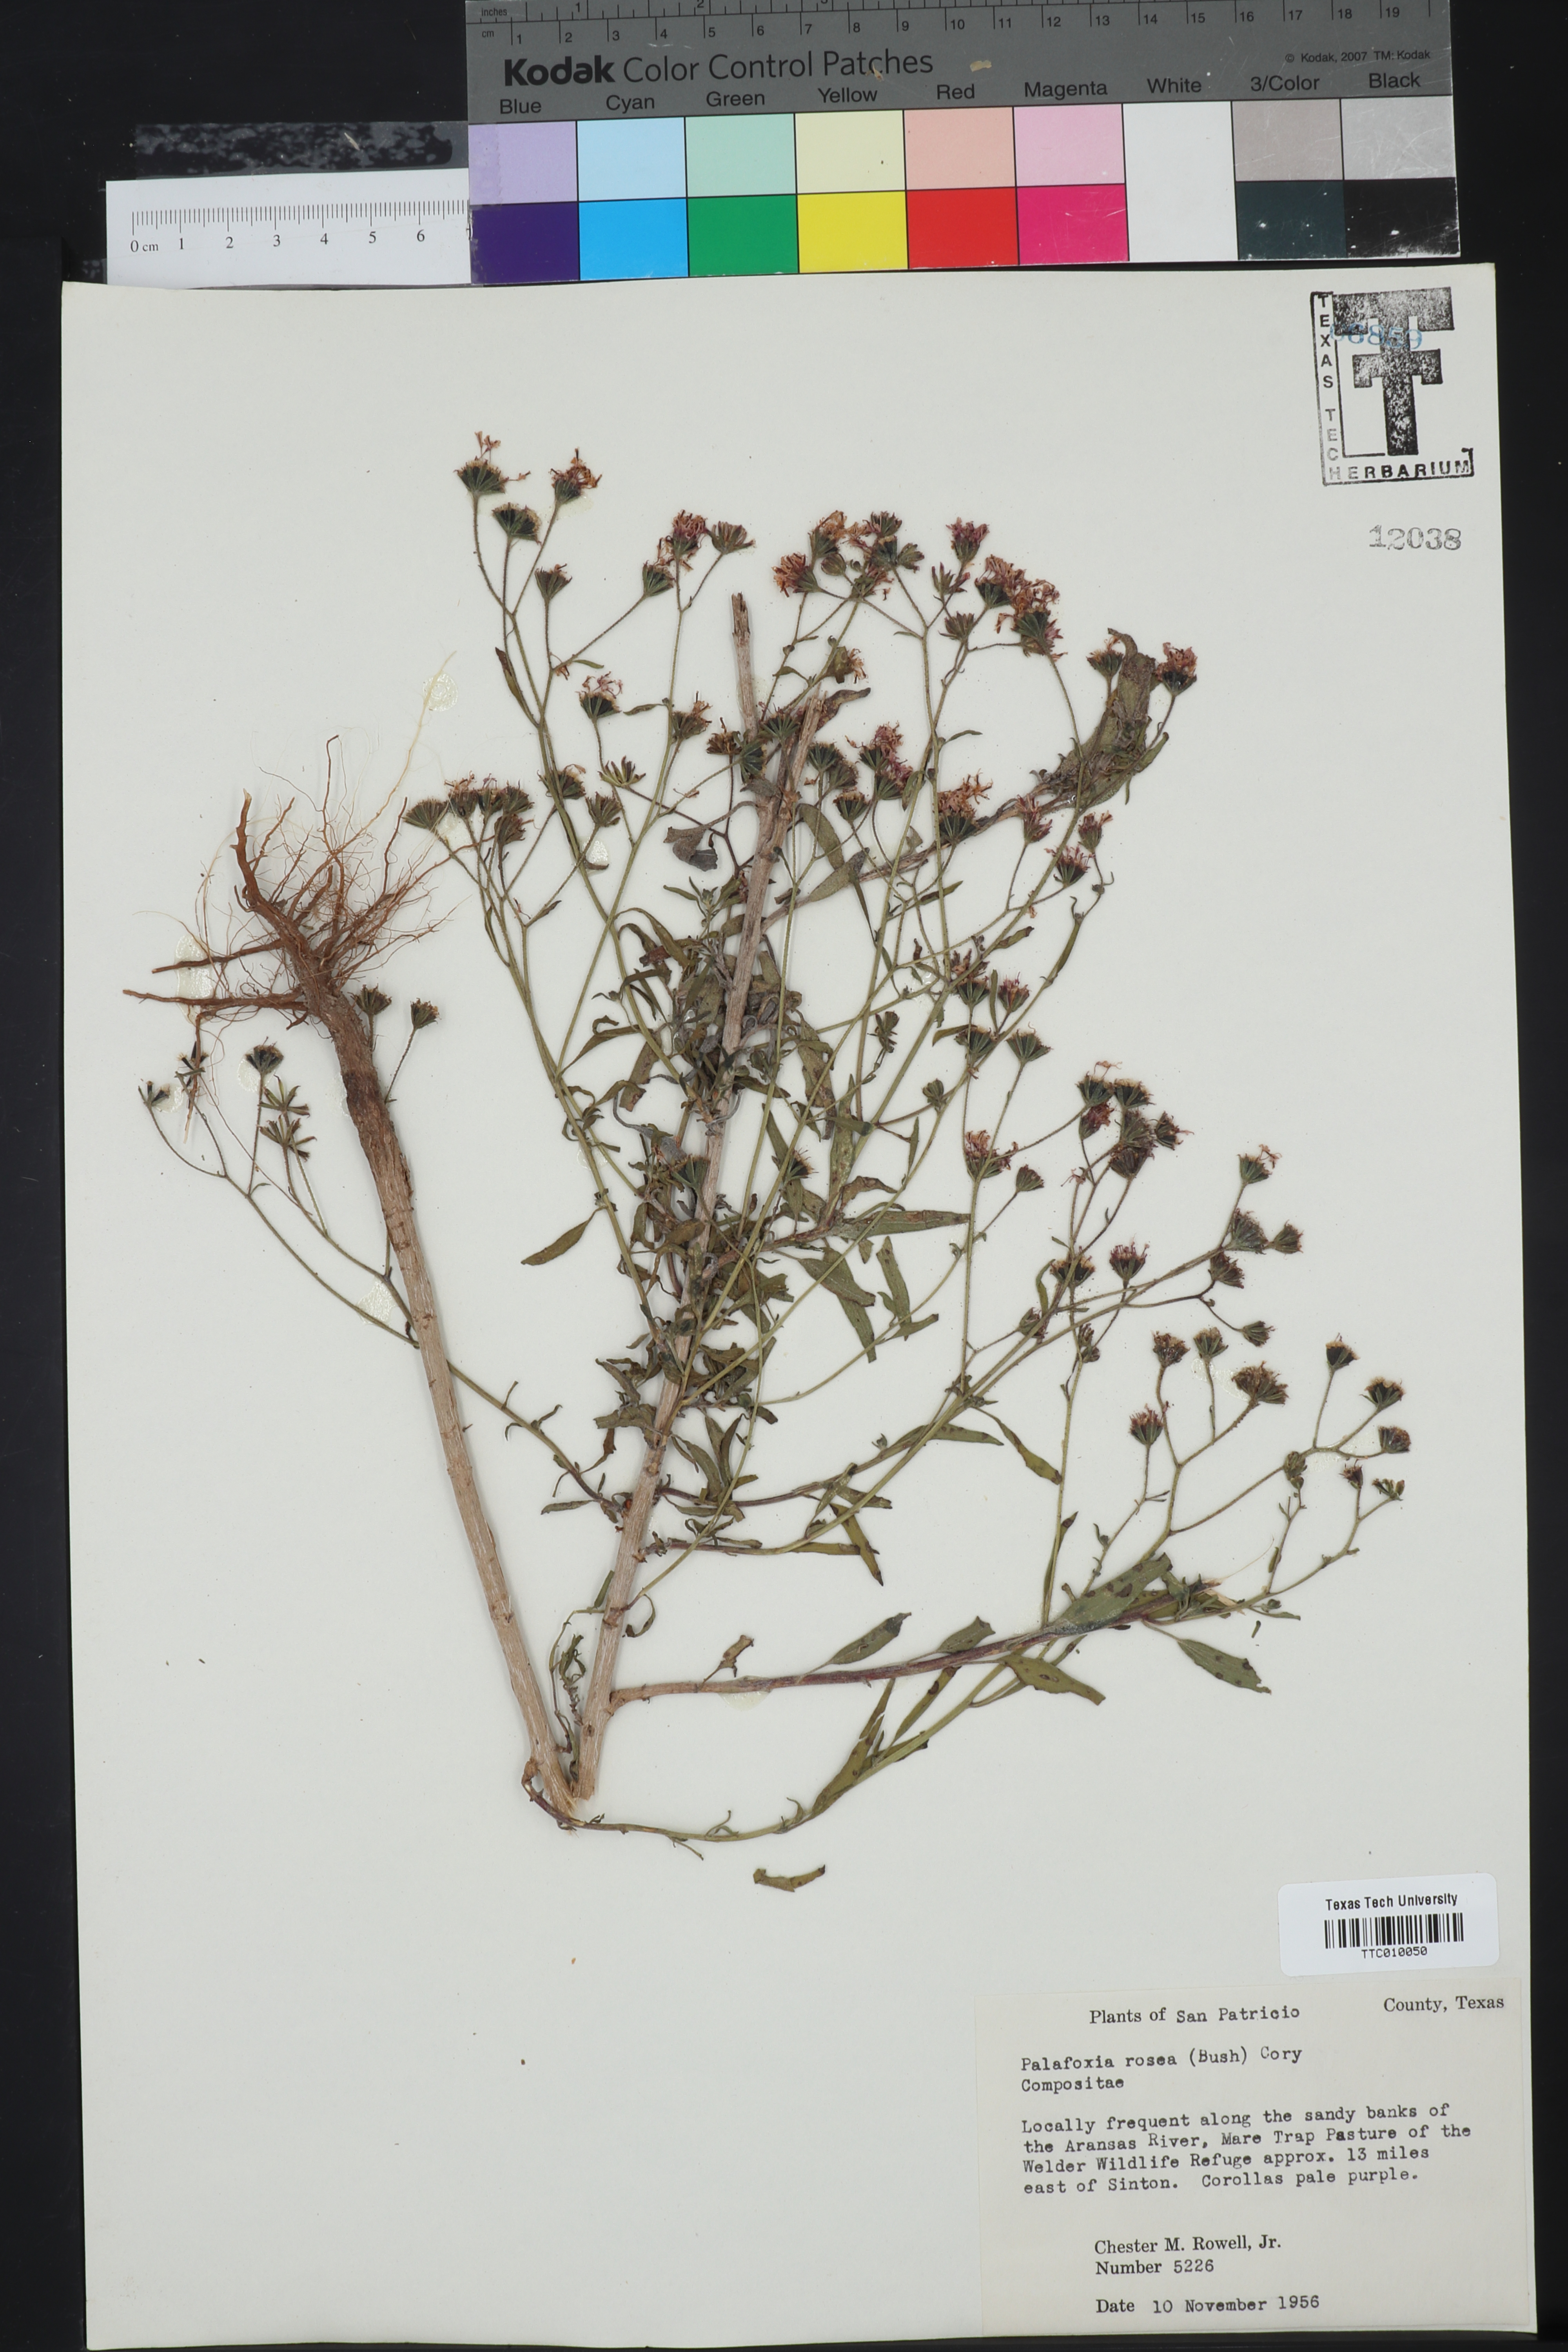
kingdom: Plantae
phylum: Tracheophyta
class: Magnoliopsida
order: Asterales
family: Asteraceae
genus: Palafoxia
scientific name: Palafoxia rosea
